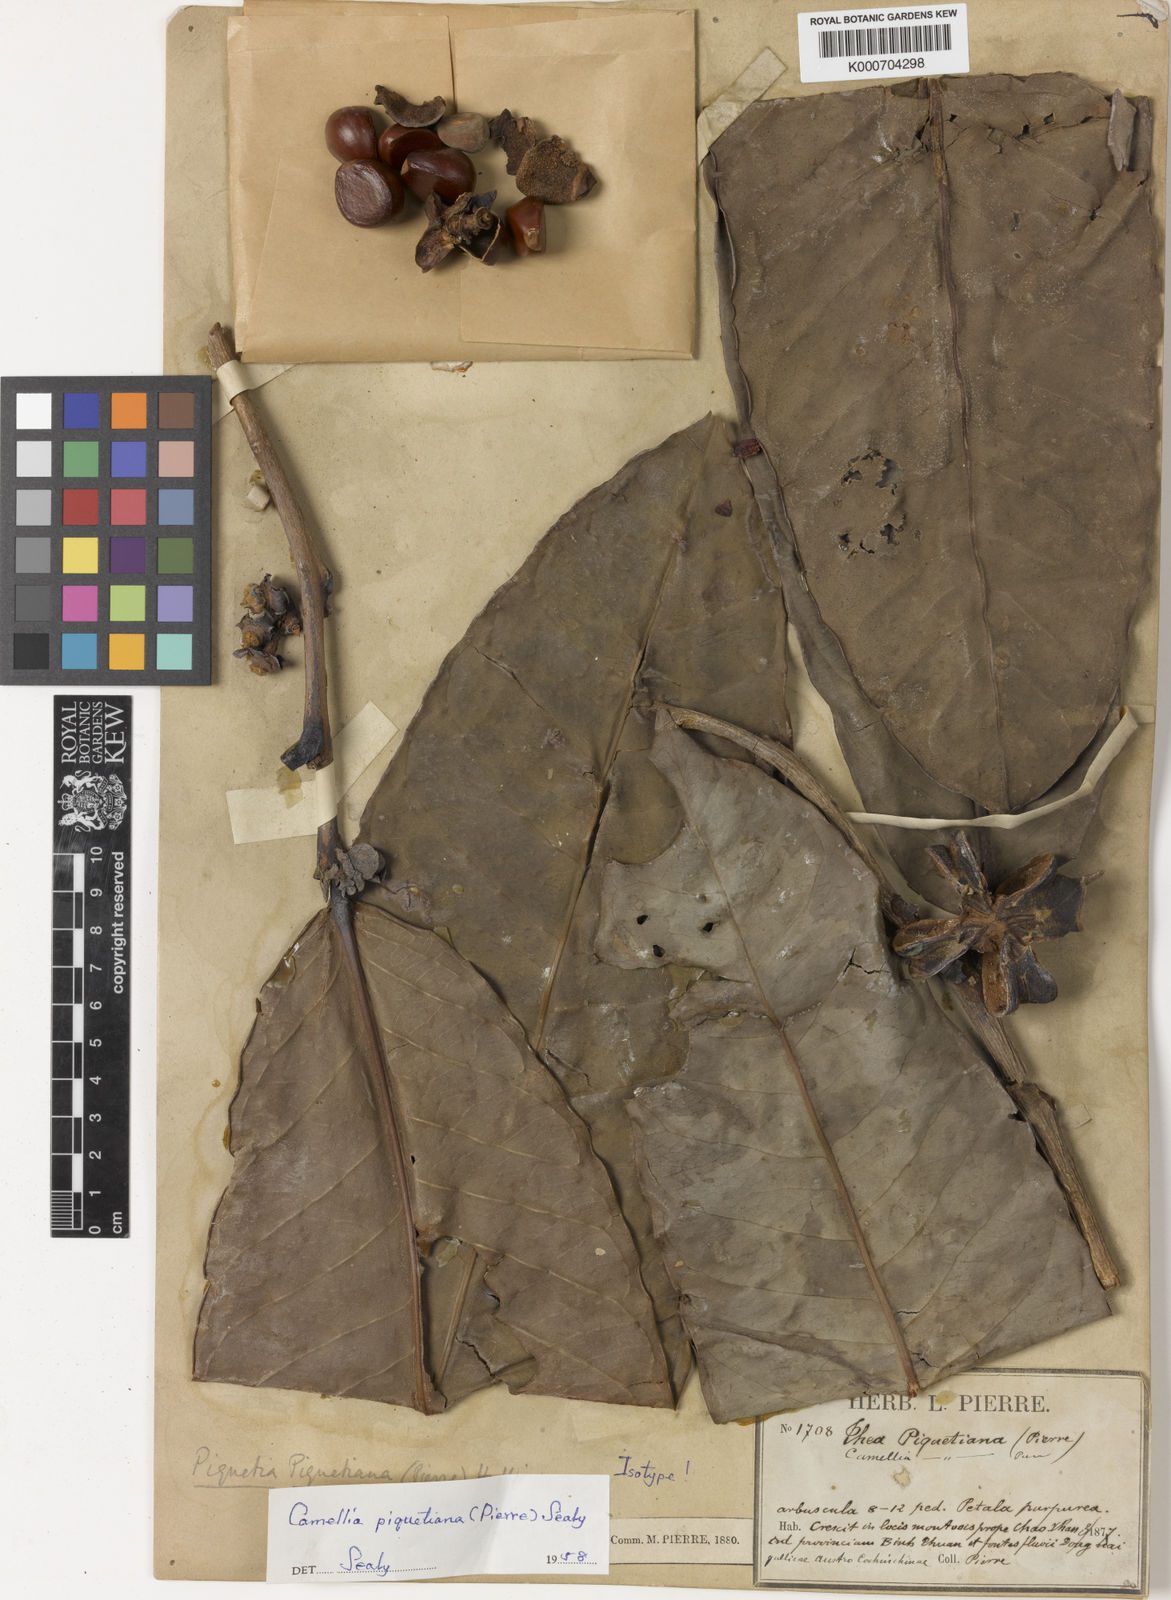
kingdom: Plantae
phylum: Tracheophyta
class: Magnoliopsida
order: Ericales
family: Theaceae
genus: Camellia
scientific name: Camellia piquetiana
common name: Purple camellia
